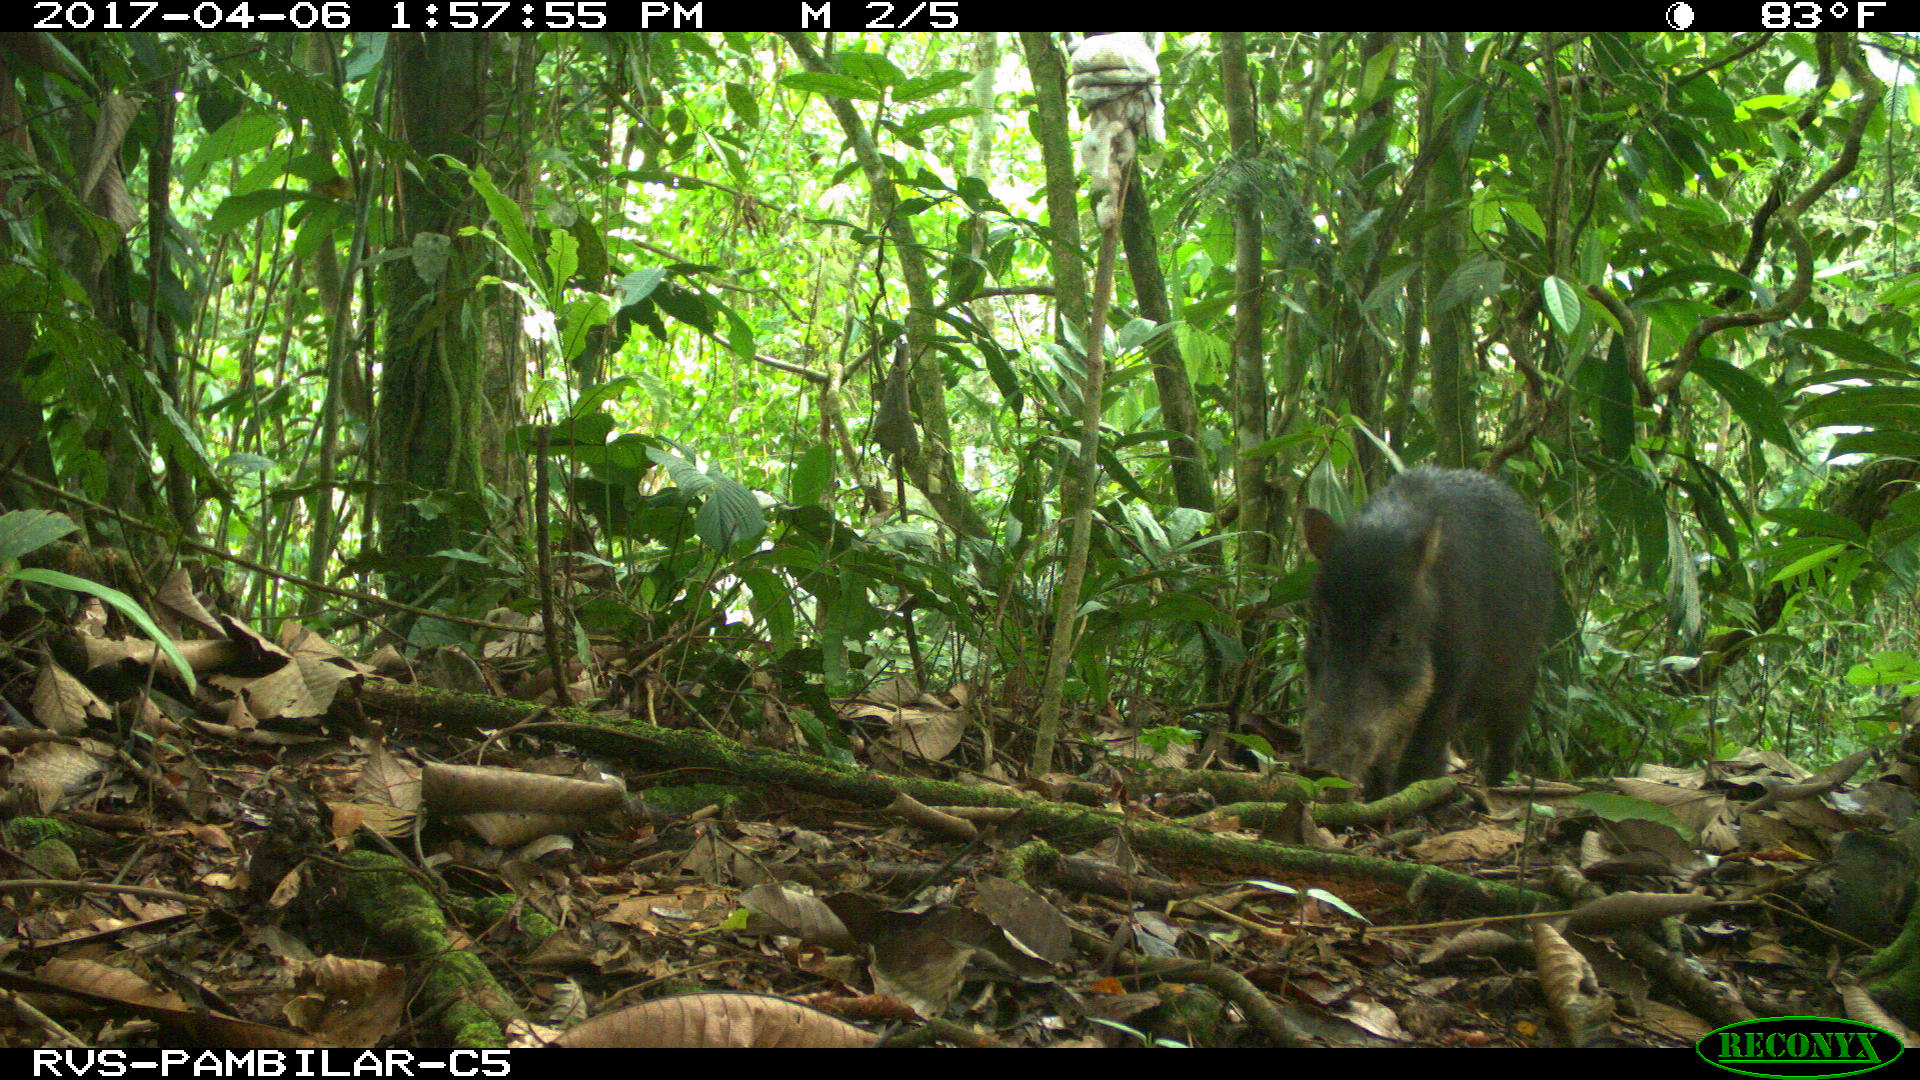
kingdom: Animalia
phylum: Chordata
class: Mammalia
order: Artiodactyla
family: Tayassuidae
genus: Tayassu
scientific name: Tayassu pecari
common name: White-lipped peccary
